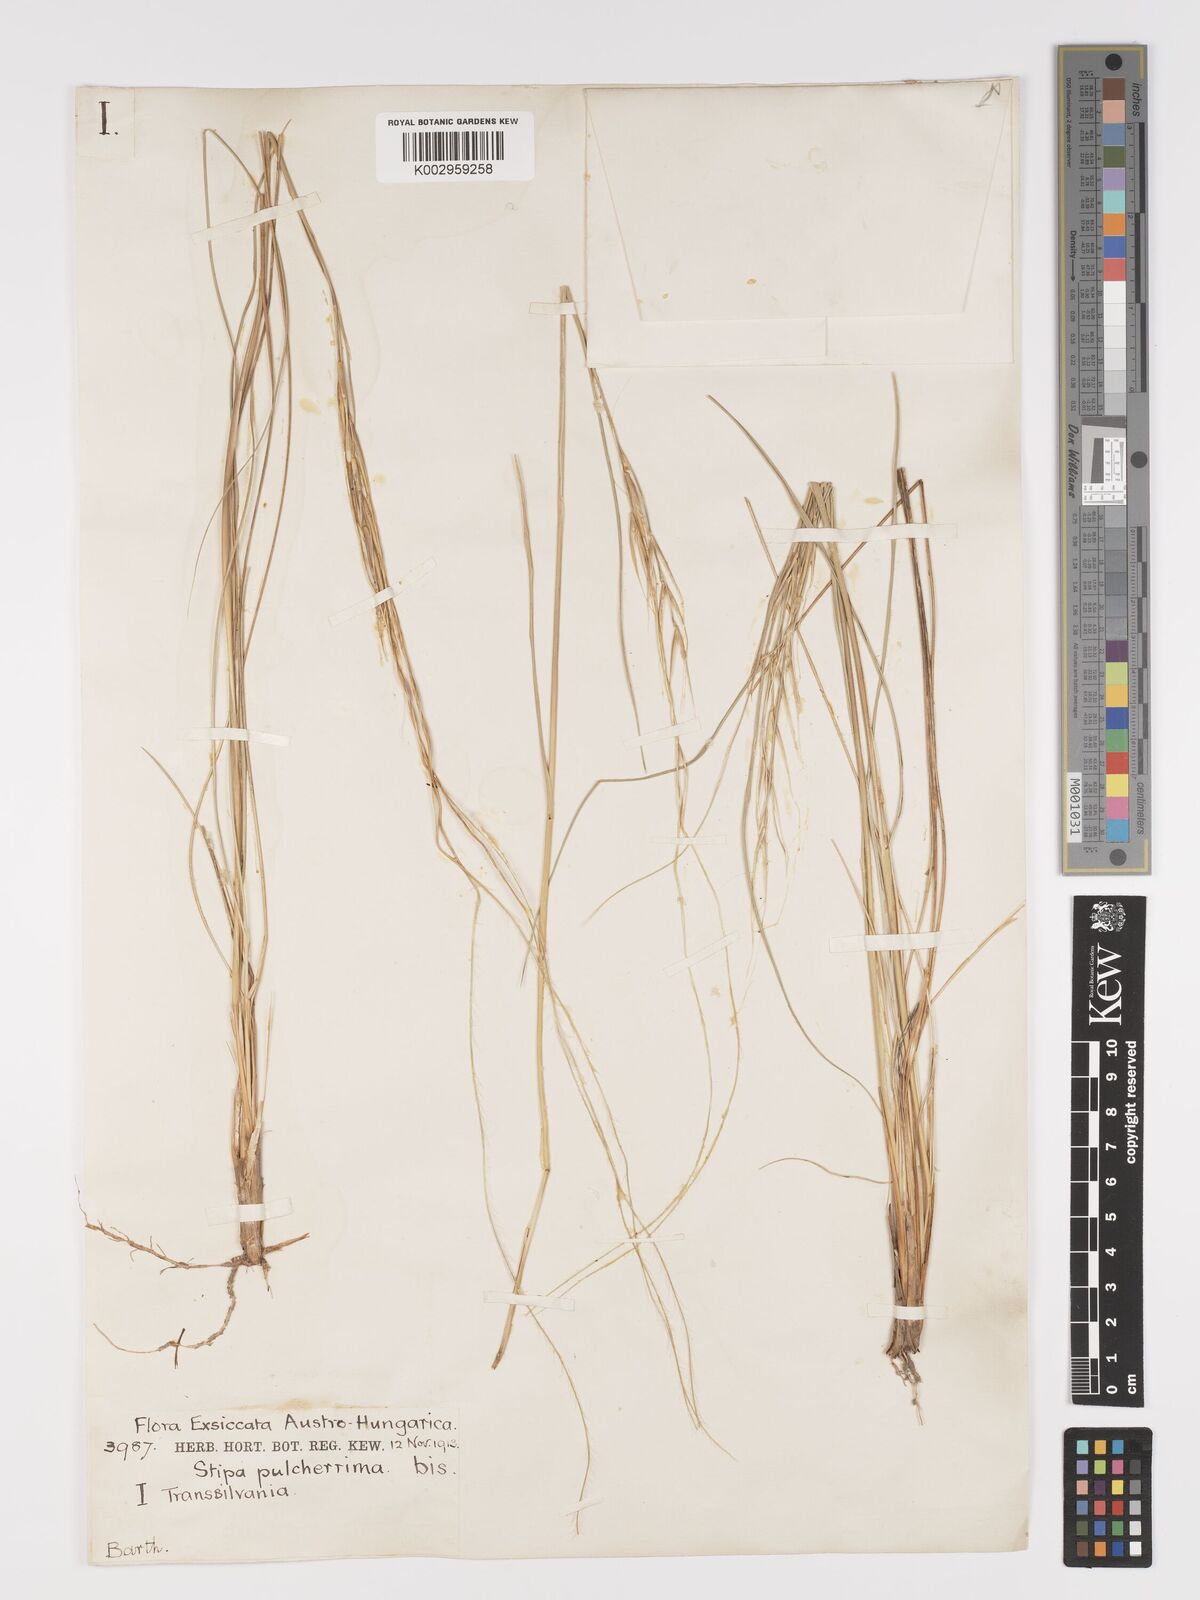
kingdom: Plantae
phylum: Tracheophyta
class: Liliopsida
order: Poales
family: Poaceae
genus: Stipa
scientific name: Stipa pulcherrima
